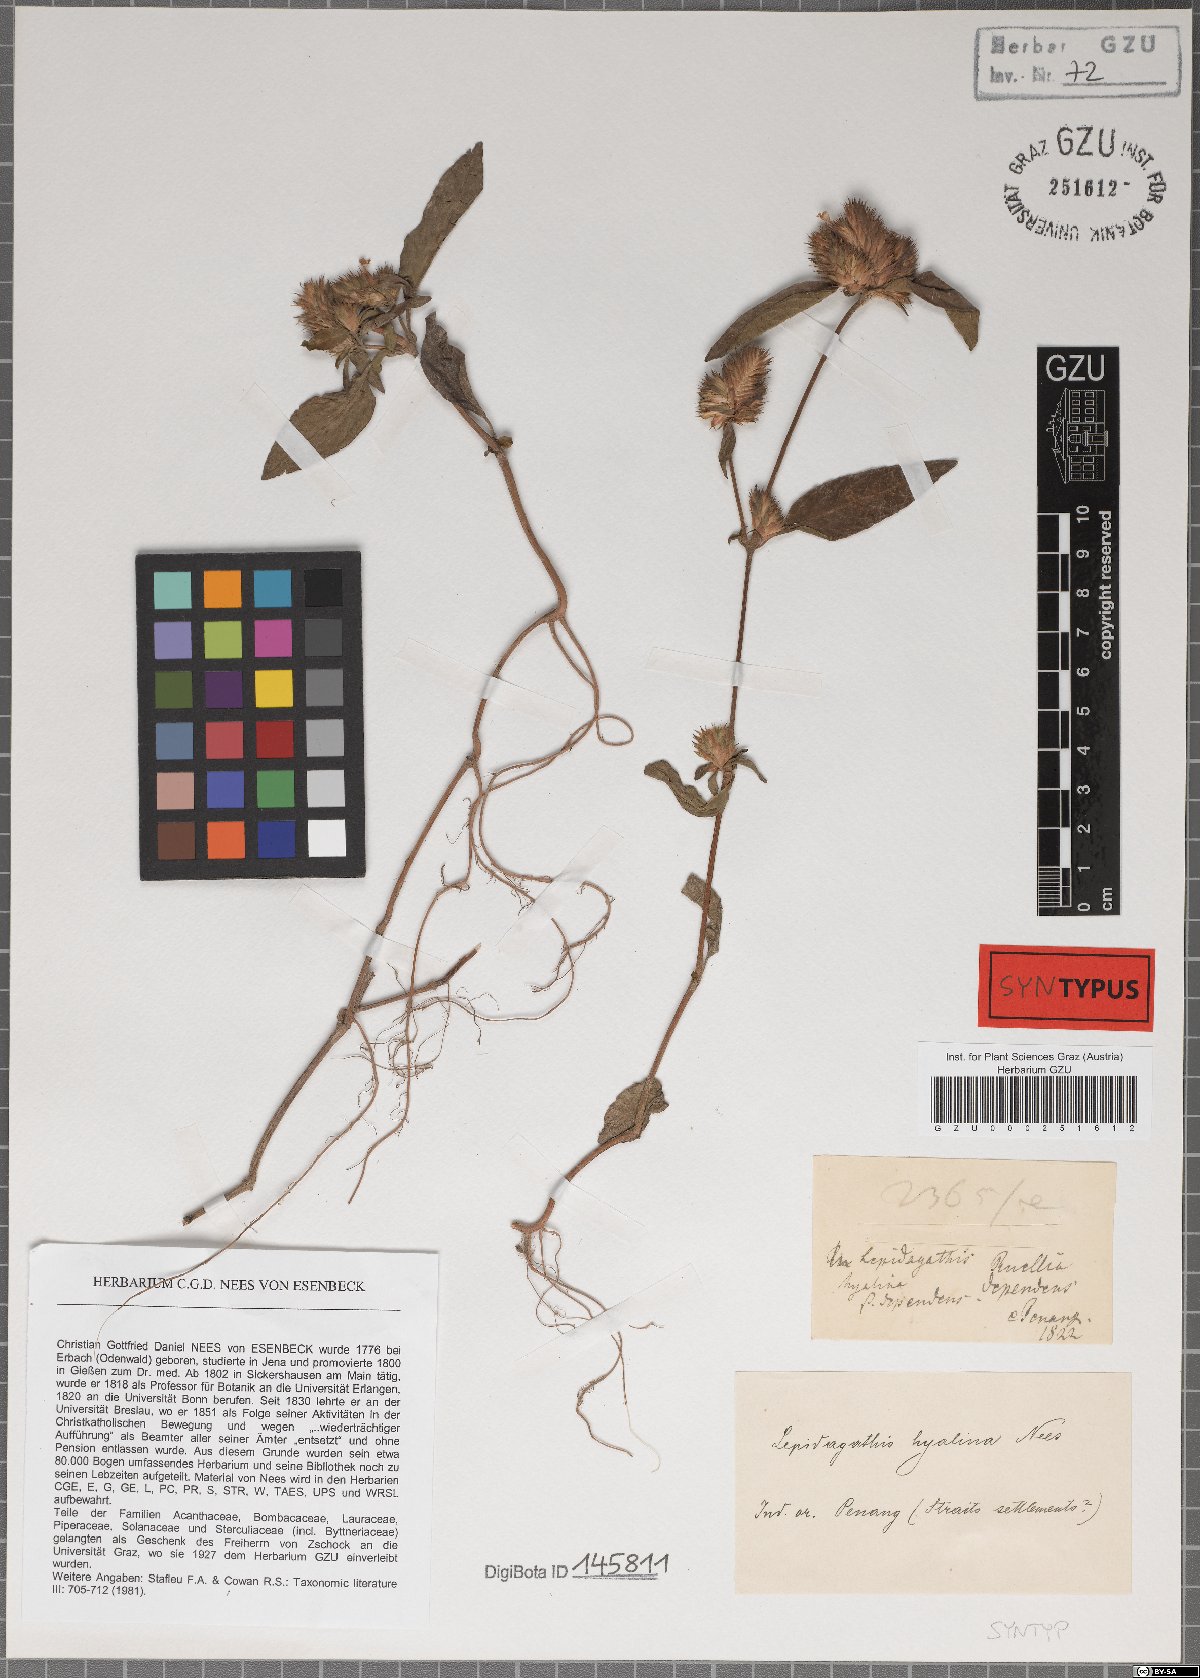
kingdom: Plantae
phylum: Tracheophyta
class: Magnoliopsida
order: Lamiales
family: Acanthaceae
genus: Lepidagathis
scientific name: Lepidagathis incurva
